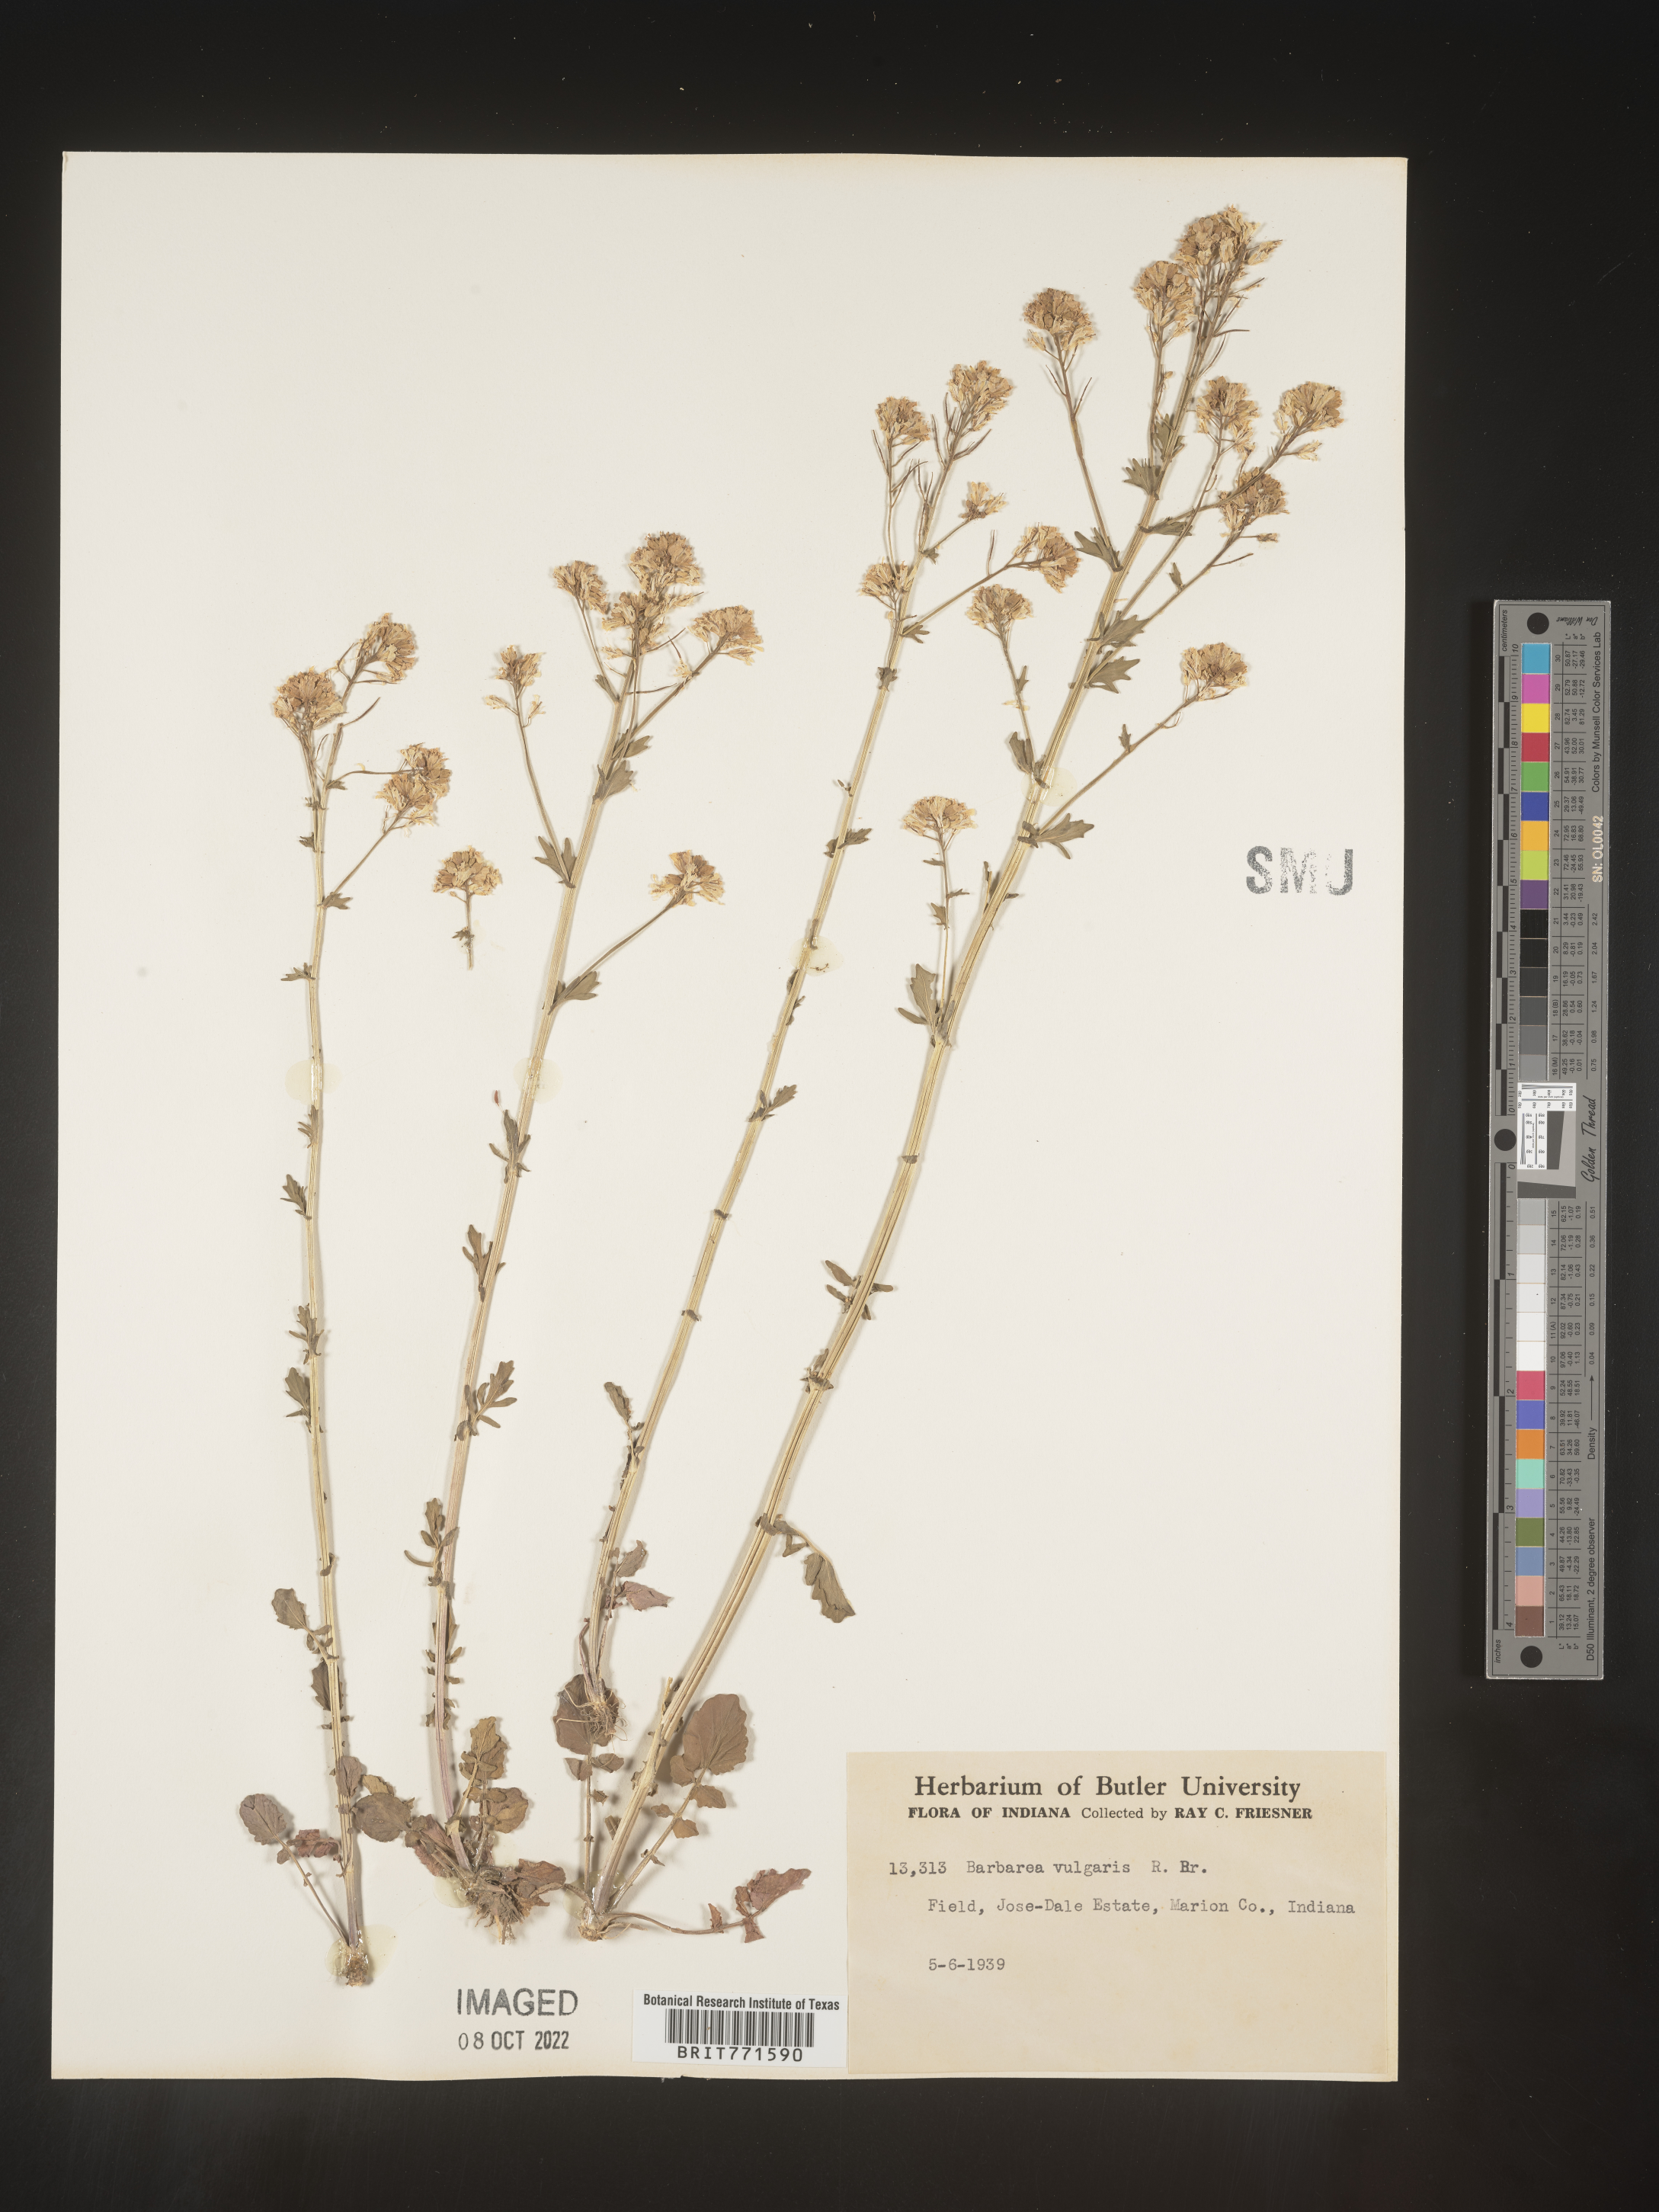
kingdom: Plantae
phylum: Tracheophyta
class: Magnoliopsida
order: Brassicales
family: Brassicaceae
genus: Barbarea
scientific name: Barbarea vulgaris
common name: Cressy-greens
